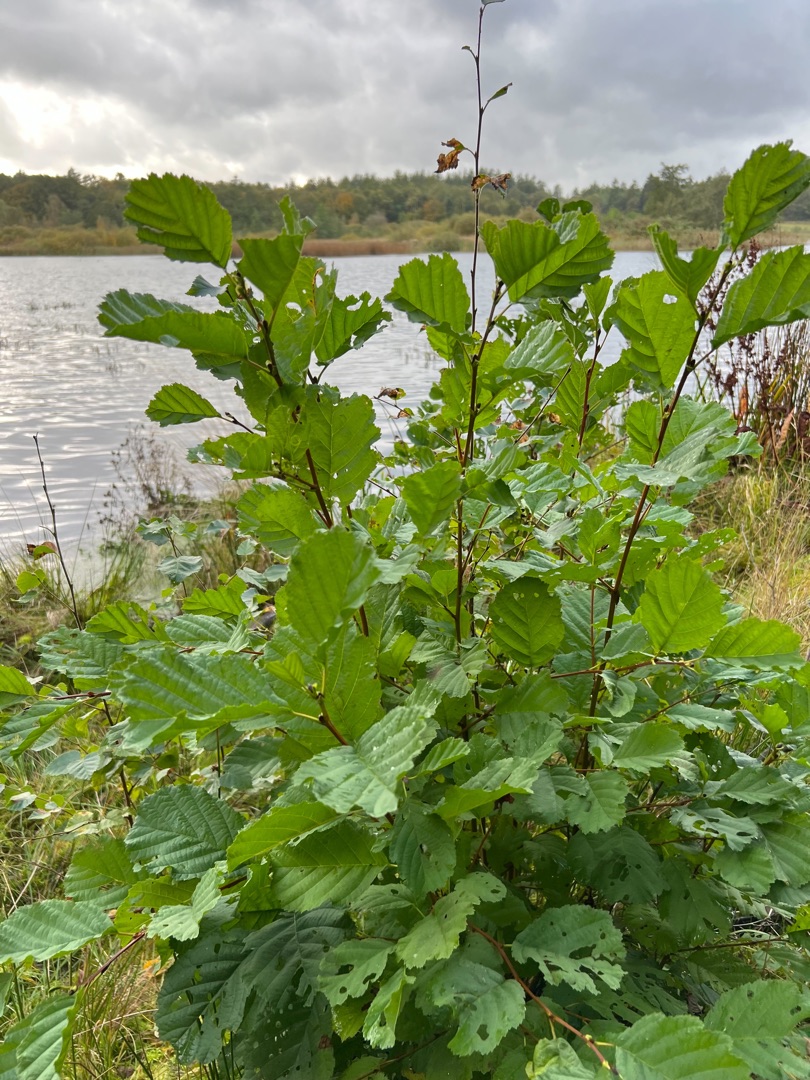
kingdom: Plantae
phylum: Tracheophyta
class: Magnoliopsida
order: Fagales
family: Betulaceae
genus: Alnus
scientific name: Alnus glutinosa
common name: Rød-el
